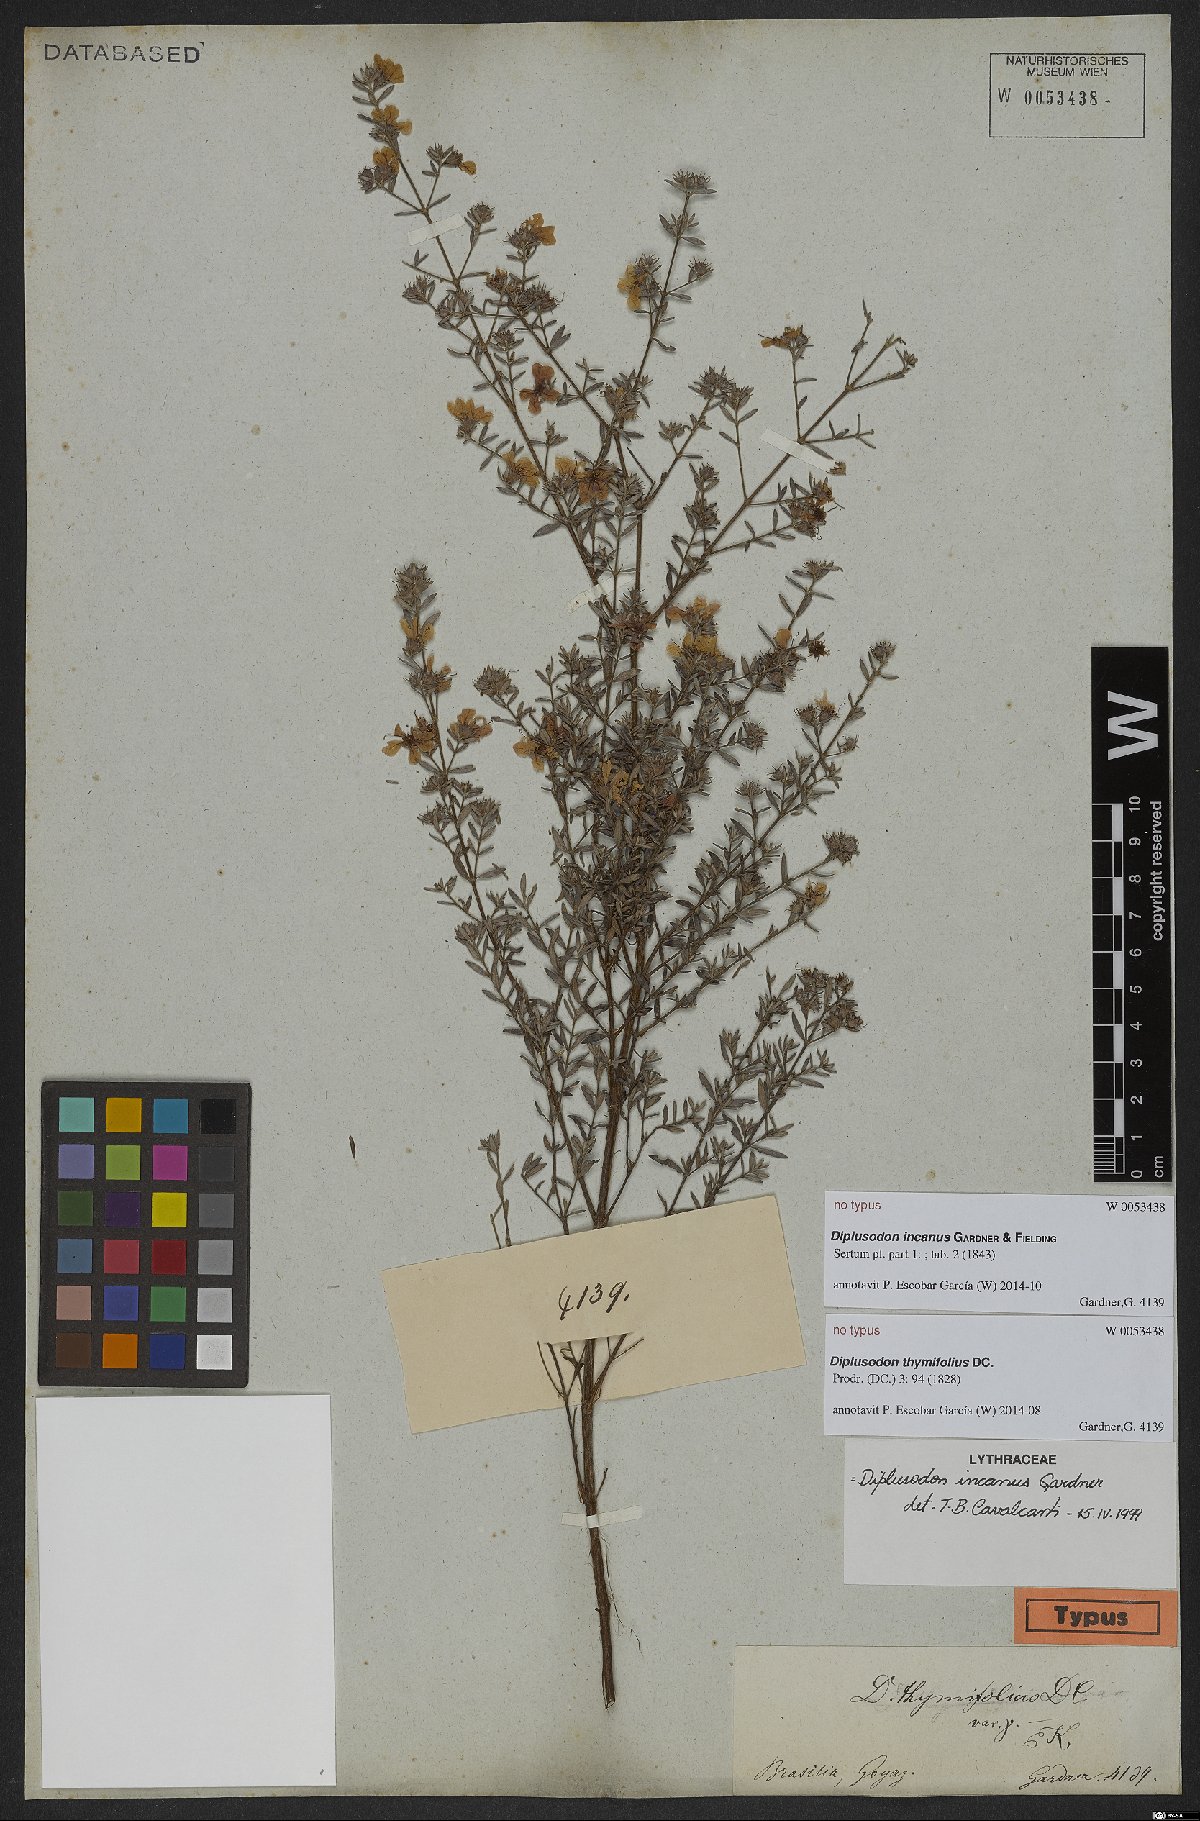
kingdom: Plantae
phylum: Tracheophyta
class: Magnoliopsida
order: Myrtales
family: Lythraceae
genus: Diplusodon
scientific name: Diplusodon incanus
